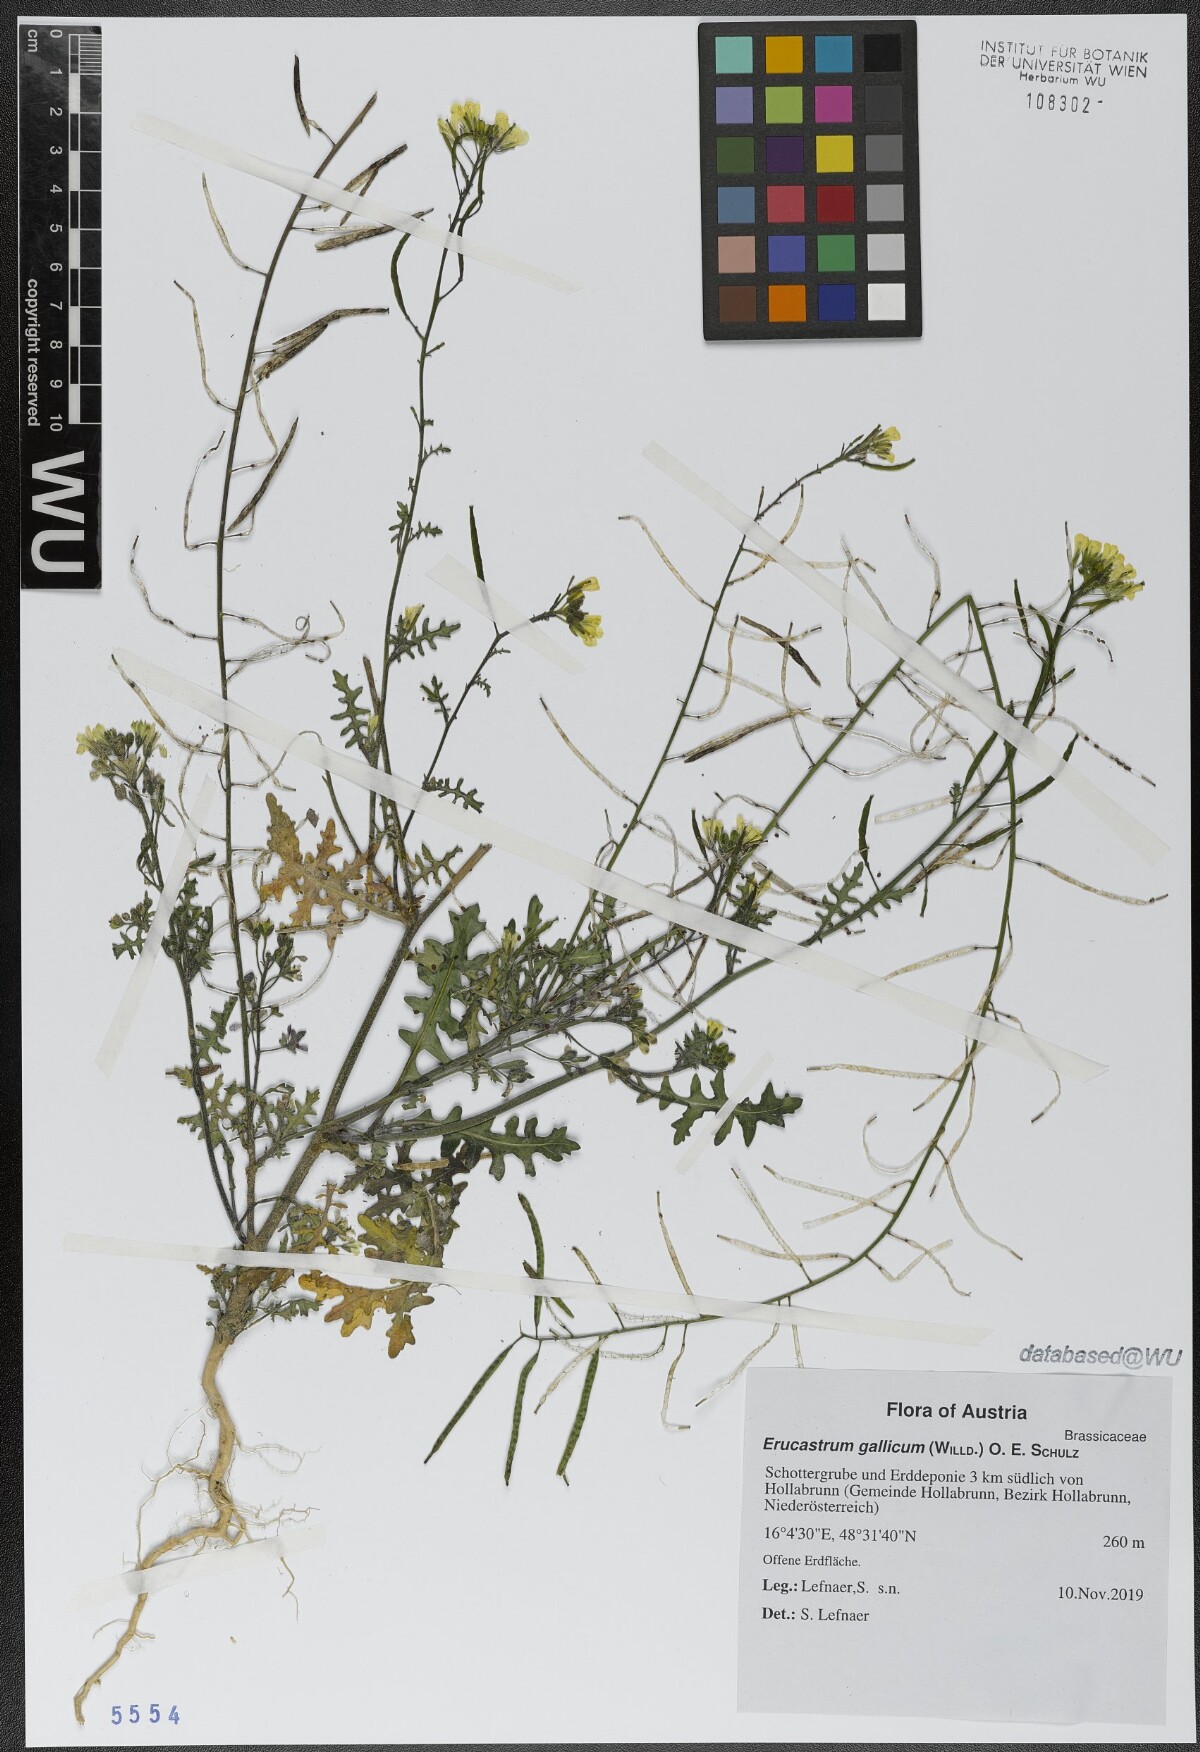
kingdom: Plantae
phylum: Tracheophyta
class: Magnoliopsida
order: Brassicales
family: Brassicaceae
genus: Erucastrum
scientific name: Erucastrum gallicum
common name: Hairy rocket
